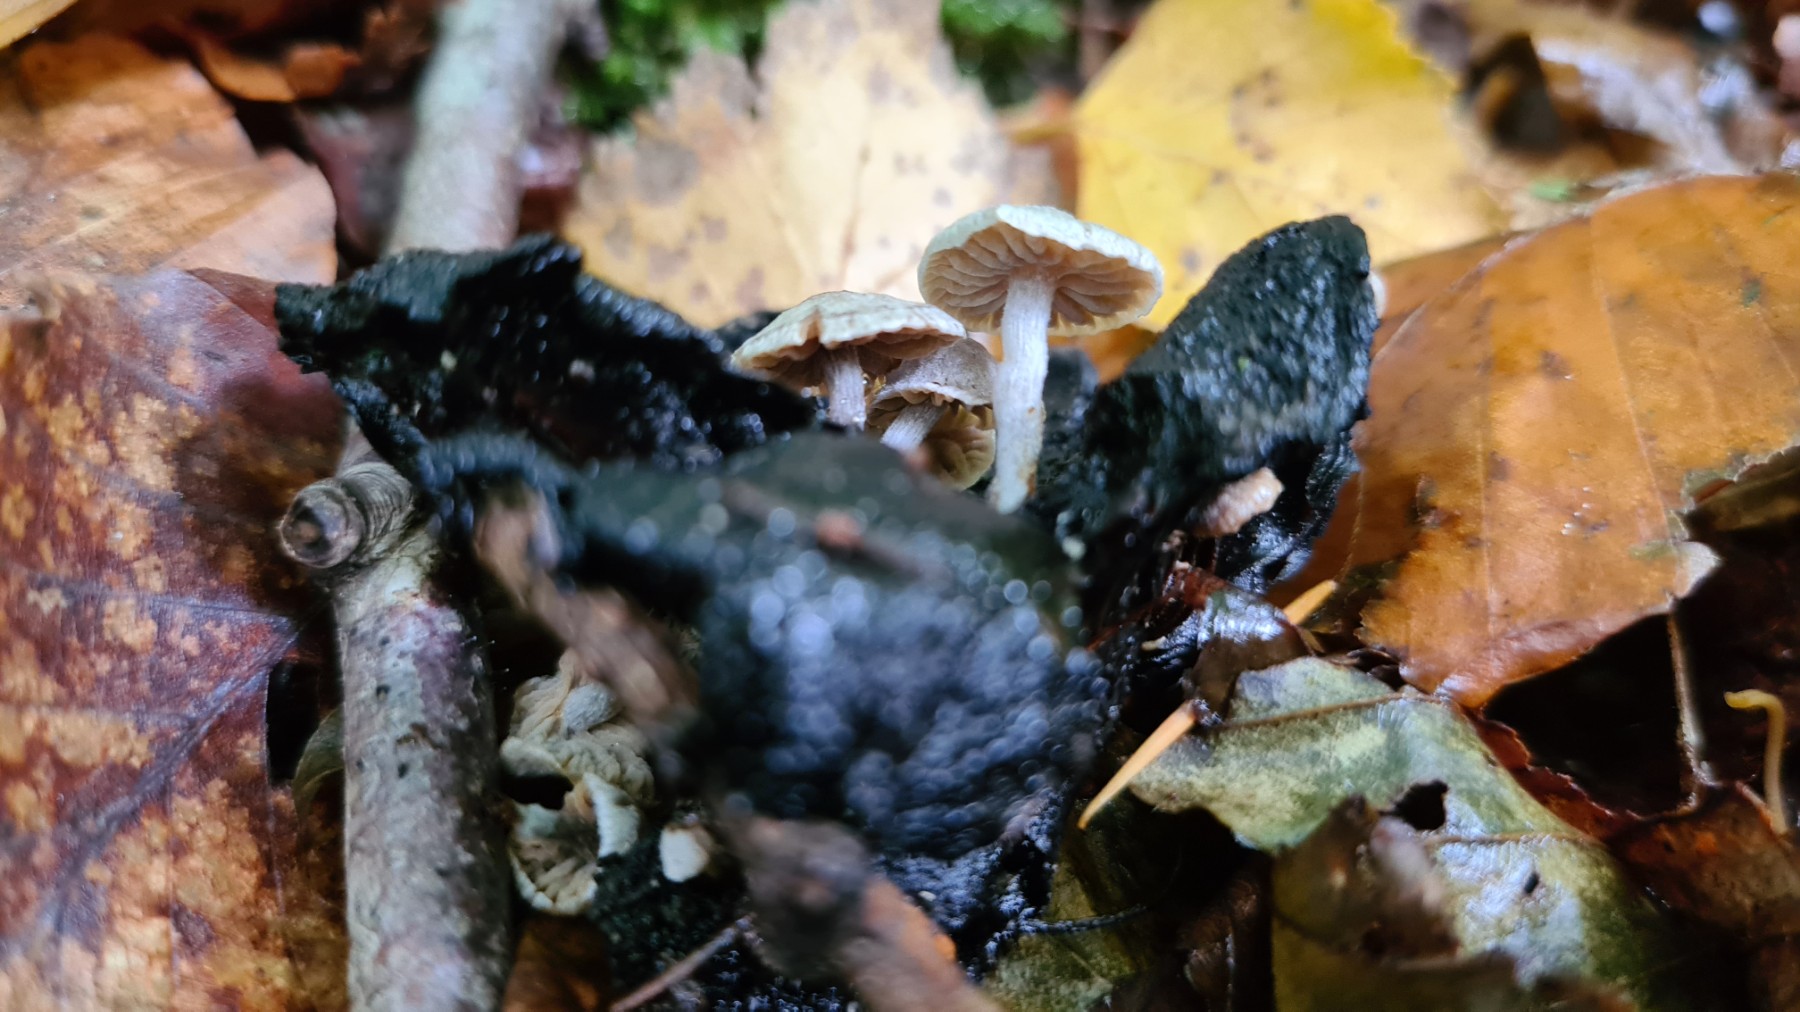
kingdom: Fungi
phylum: Basidiomycota
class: Agaricomycetes
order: Agaricales
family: Lyophyllaceae
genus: Asterophora
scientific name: Asterophora parasitica
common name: grå snyltehat
